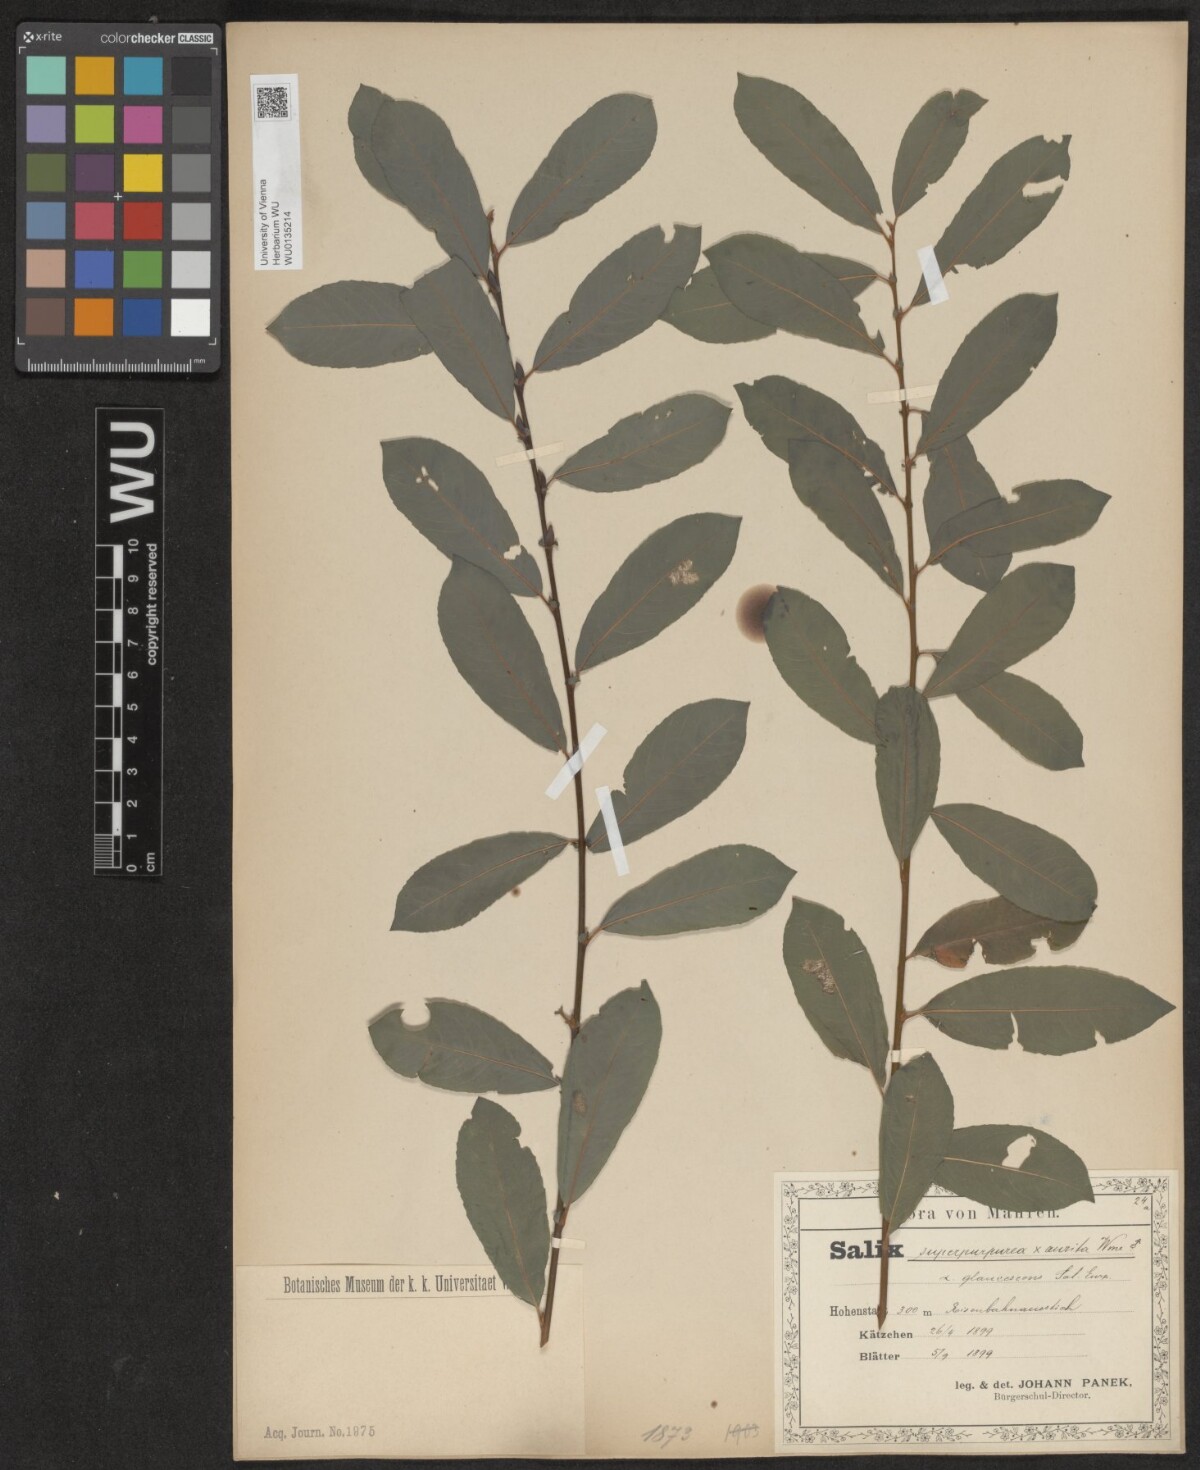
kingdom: Plantae
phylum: Tracheophyta
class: Magnoliopsida
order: Malpighiales
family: Salicaceae
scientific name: Salicaceae
